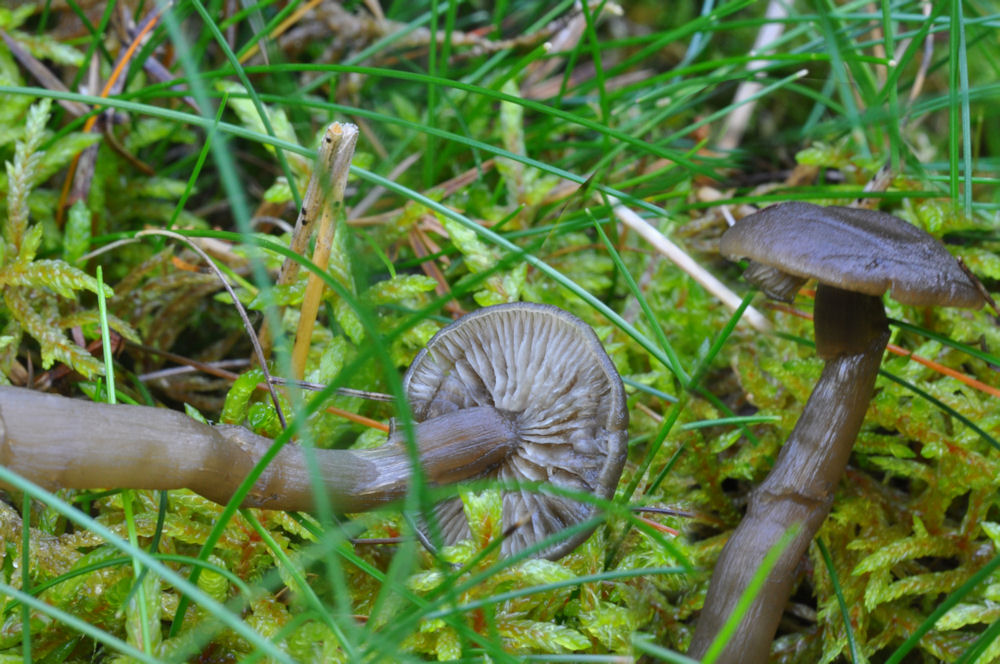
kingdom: Fungi
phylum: Basidiomycota
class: Agaricomycetes
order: Agaricales
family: Clavariaceae
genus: Camarophyllopsis
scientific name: Camarophyllopsis schulzeri
